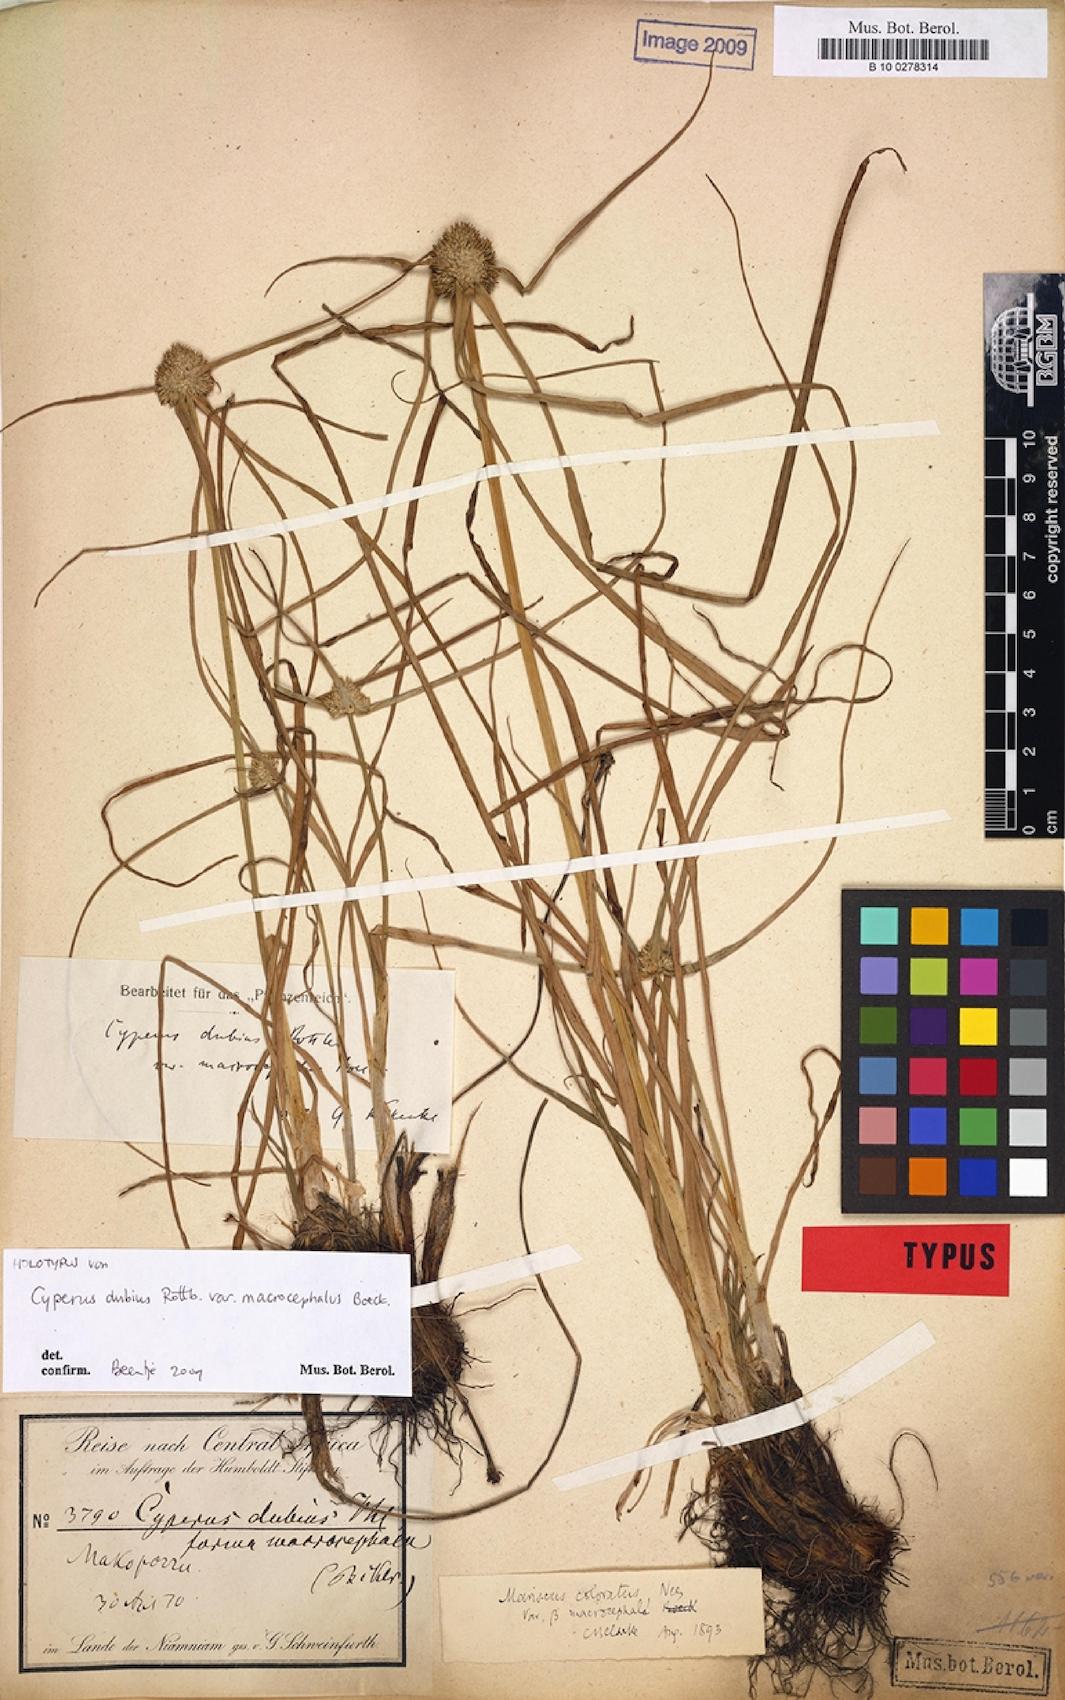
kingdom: Plantae
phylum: Tracheophyta
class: Liliopsida
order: Poales
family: Cyperaceae
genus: Cyperus
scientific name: Cyperus dubius
